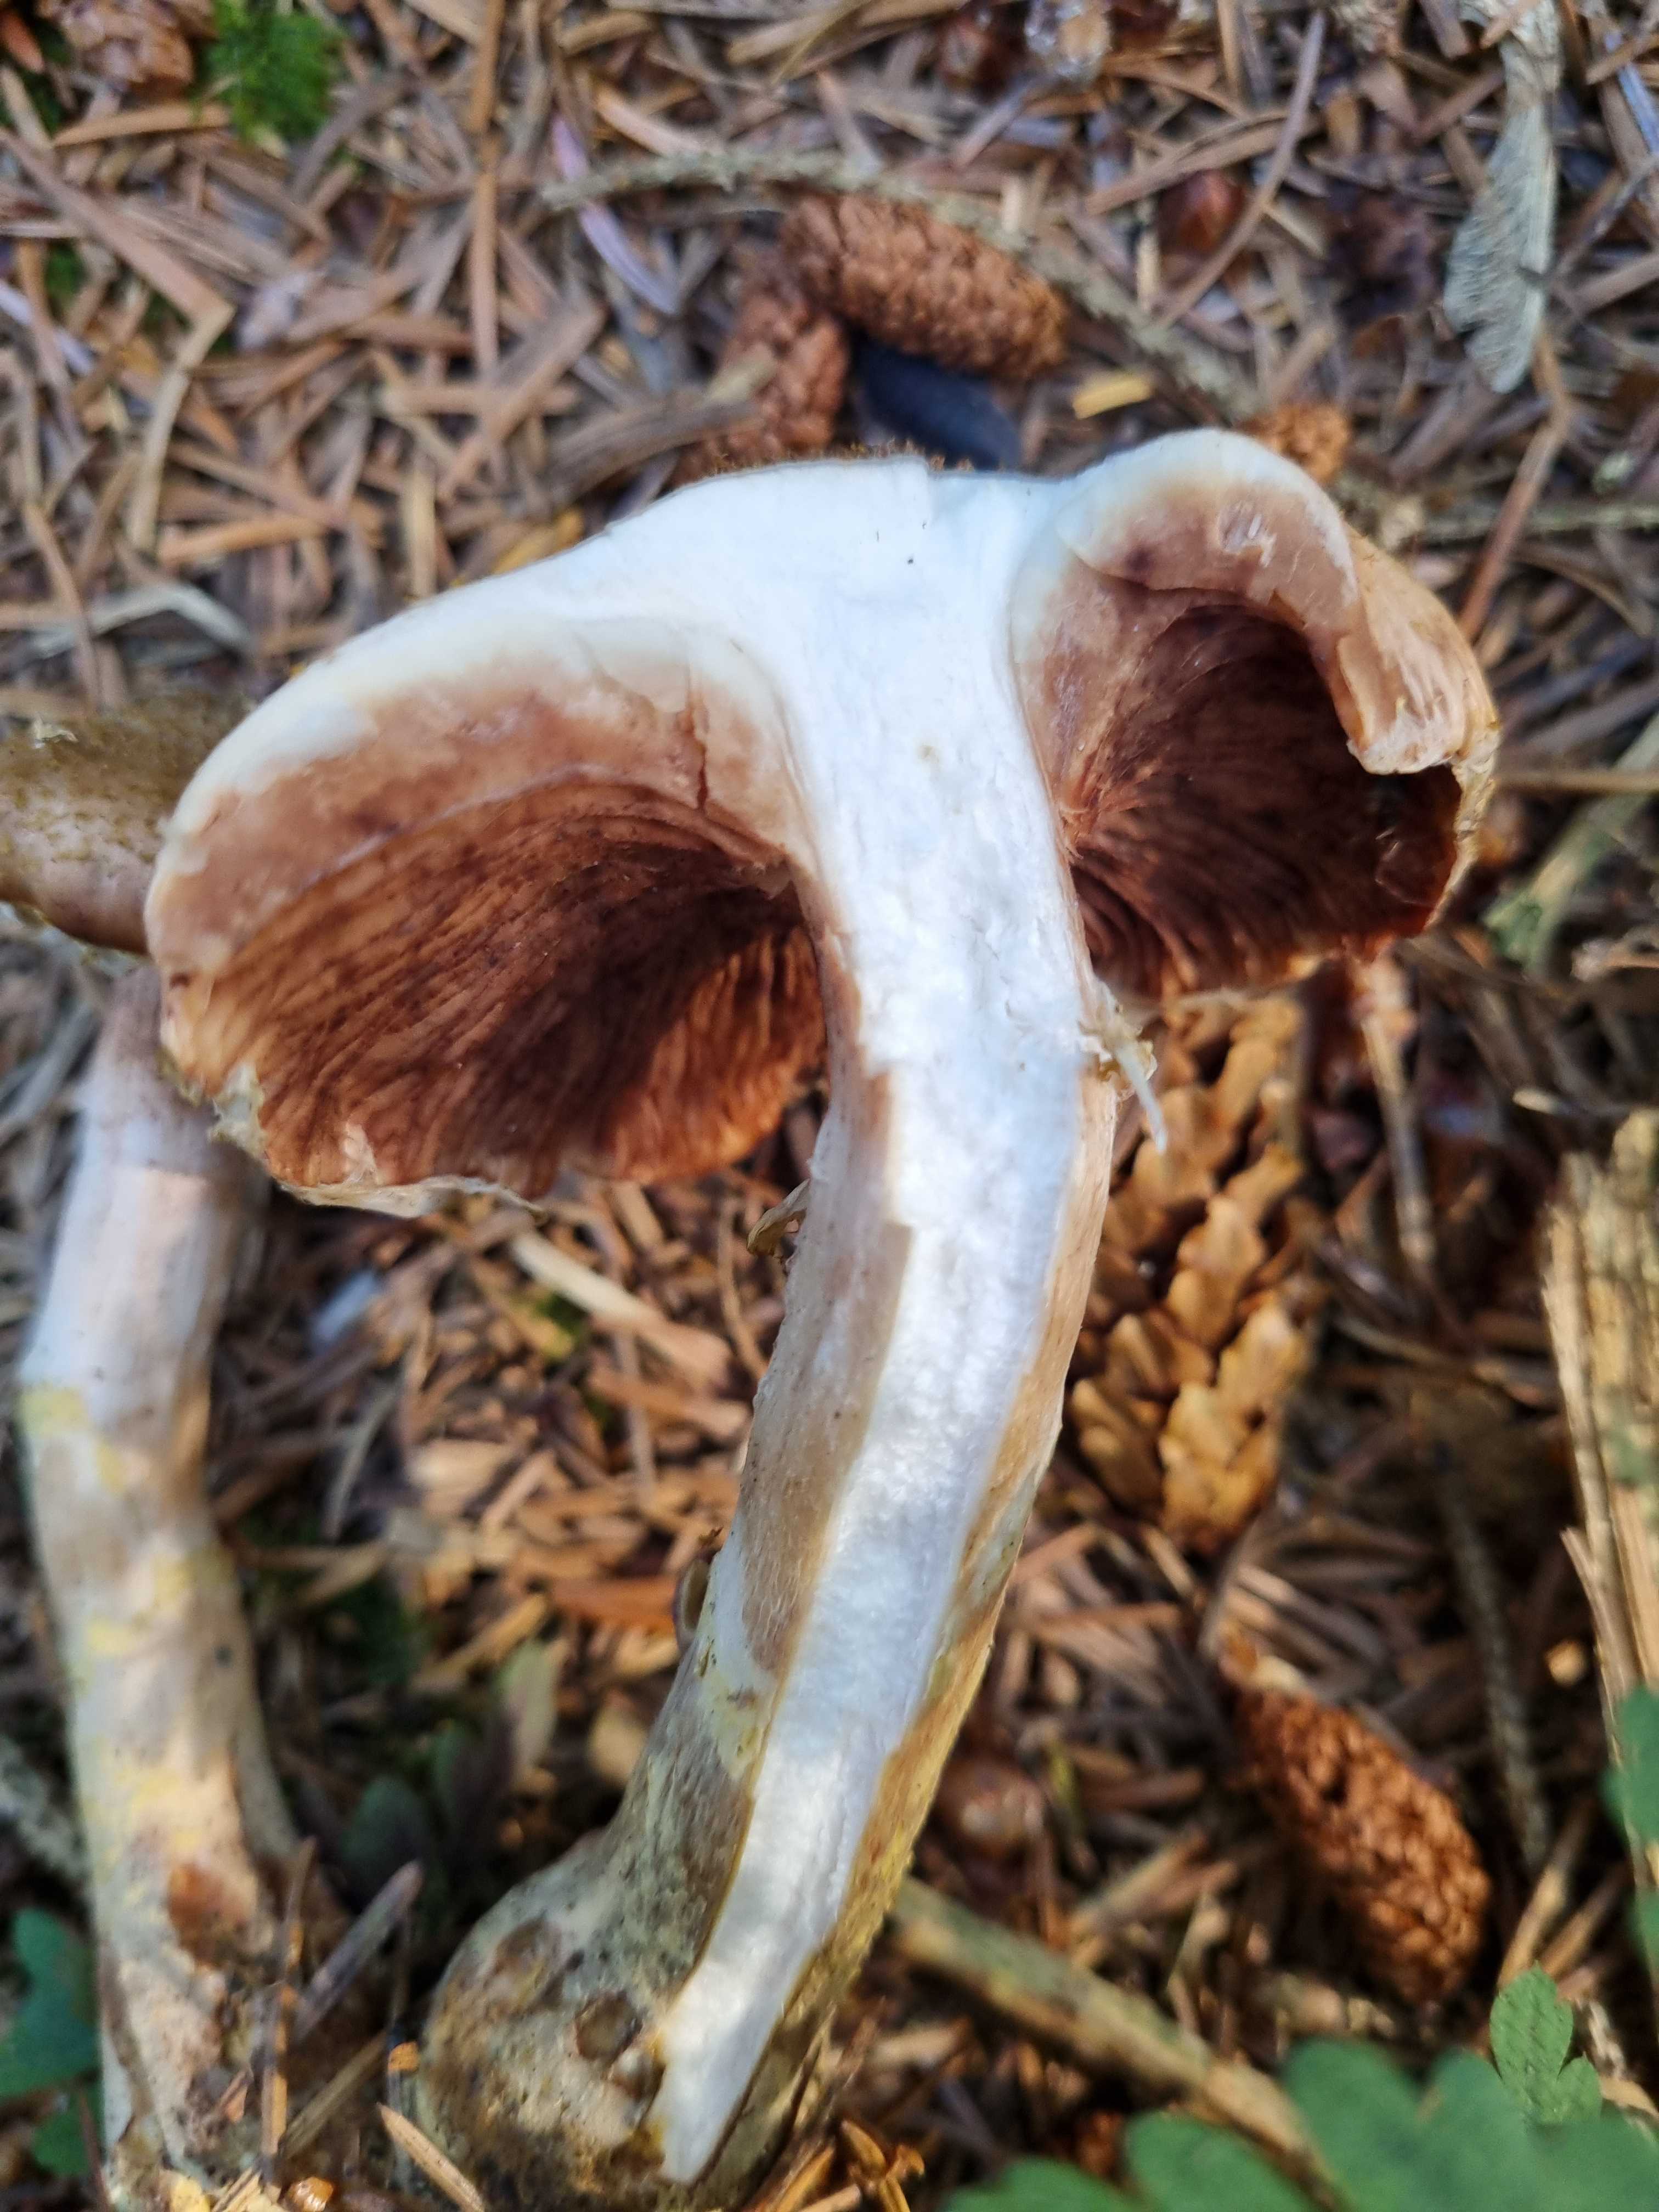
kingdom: Fungi
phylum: Basidiomycota
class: Agaricomycetes
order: Agaricales
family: Physalacriaceae
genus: Armillaria
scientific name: Armillaria lutea
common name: køllestokket honningsvamp
